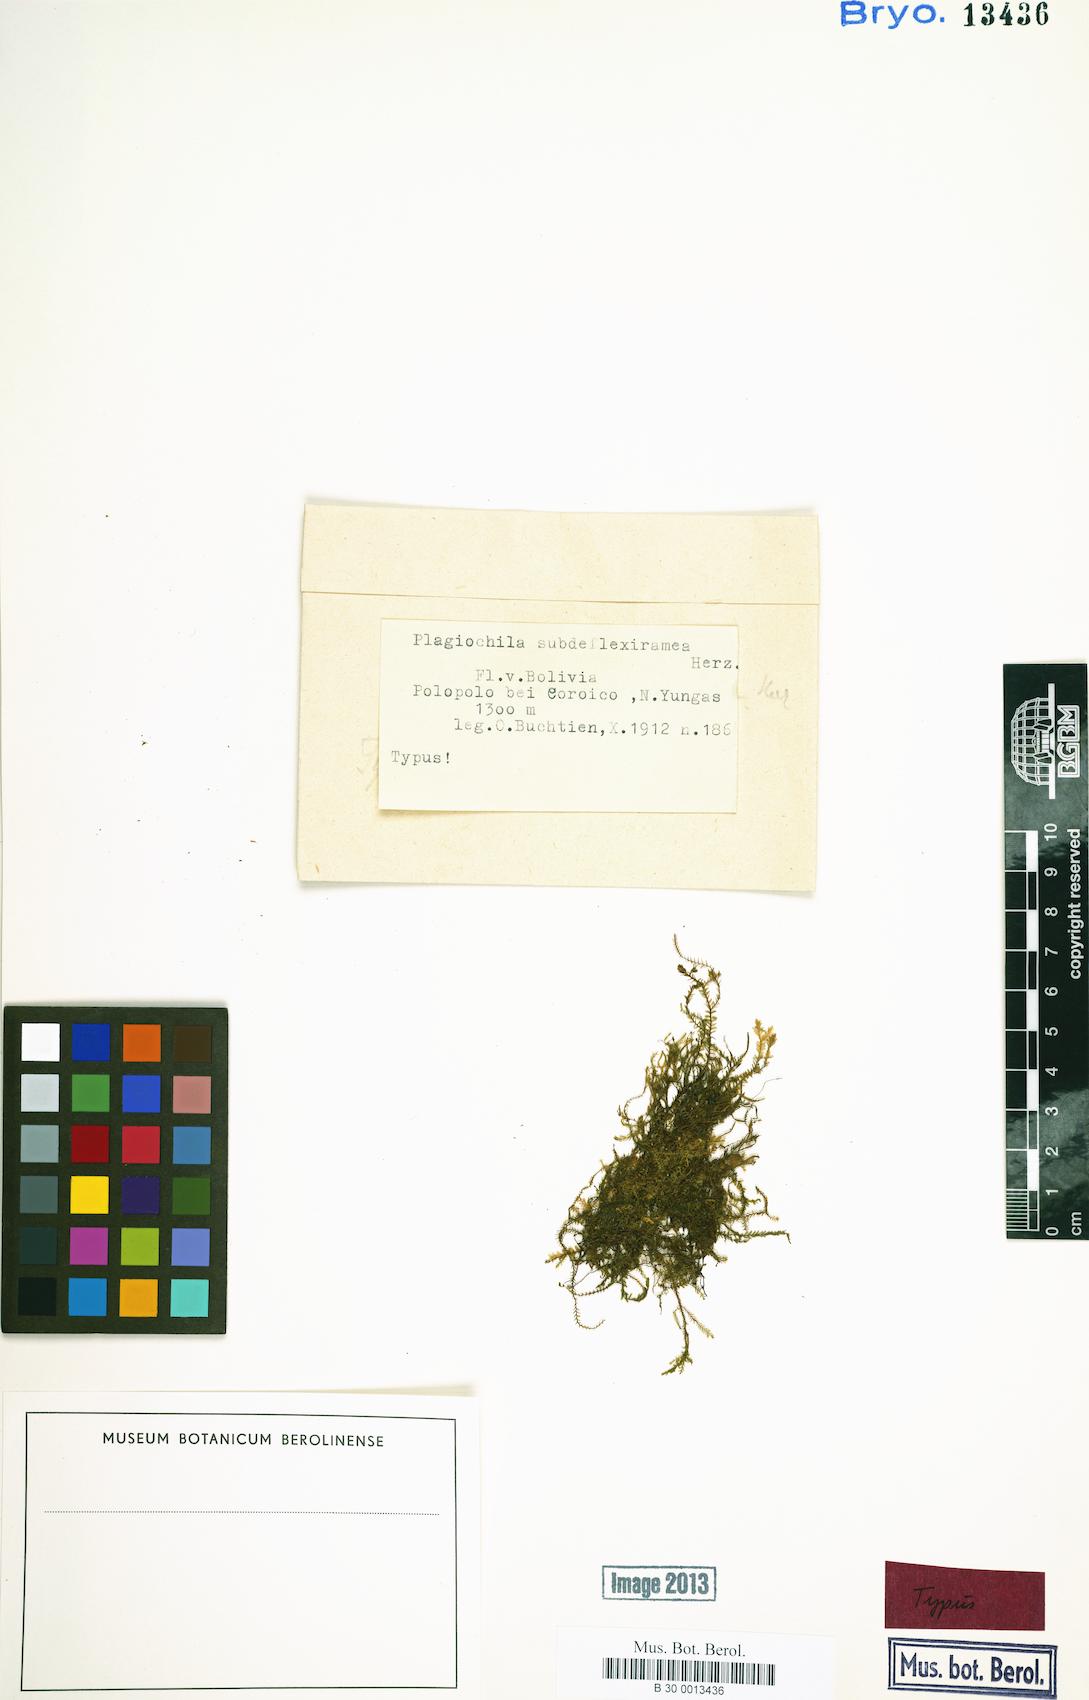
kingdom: Plantae
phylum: Marchantiophyta
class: Jungermanniopsida
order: Jungermanniales
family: Plagiochilaceae
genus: Plagiochila
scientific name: Plagiochila tamariscina
